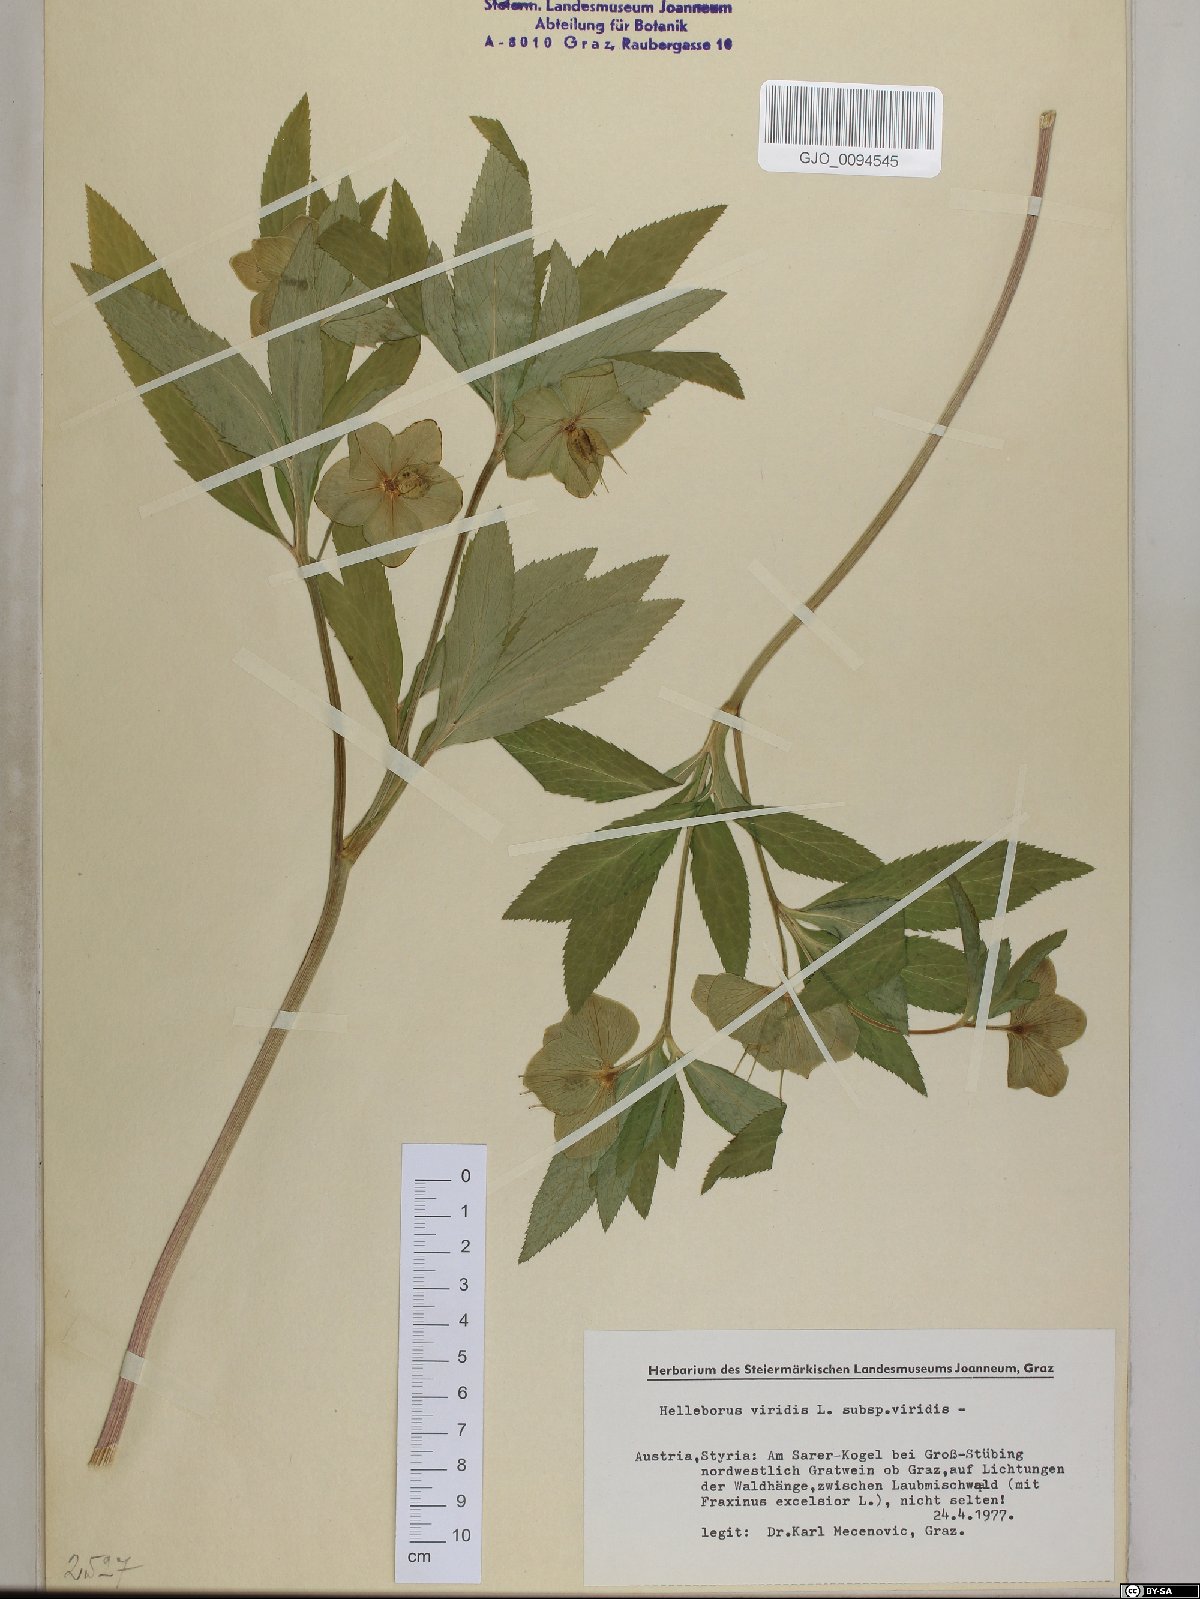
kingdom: Plantae
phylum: Tracheophyta
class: Magnoliopsida
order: Ranunculales
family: Ranunculaceae
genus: Helleborus
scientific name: Helleborus viridis
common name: Green hellebore
